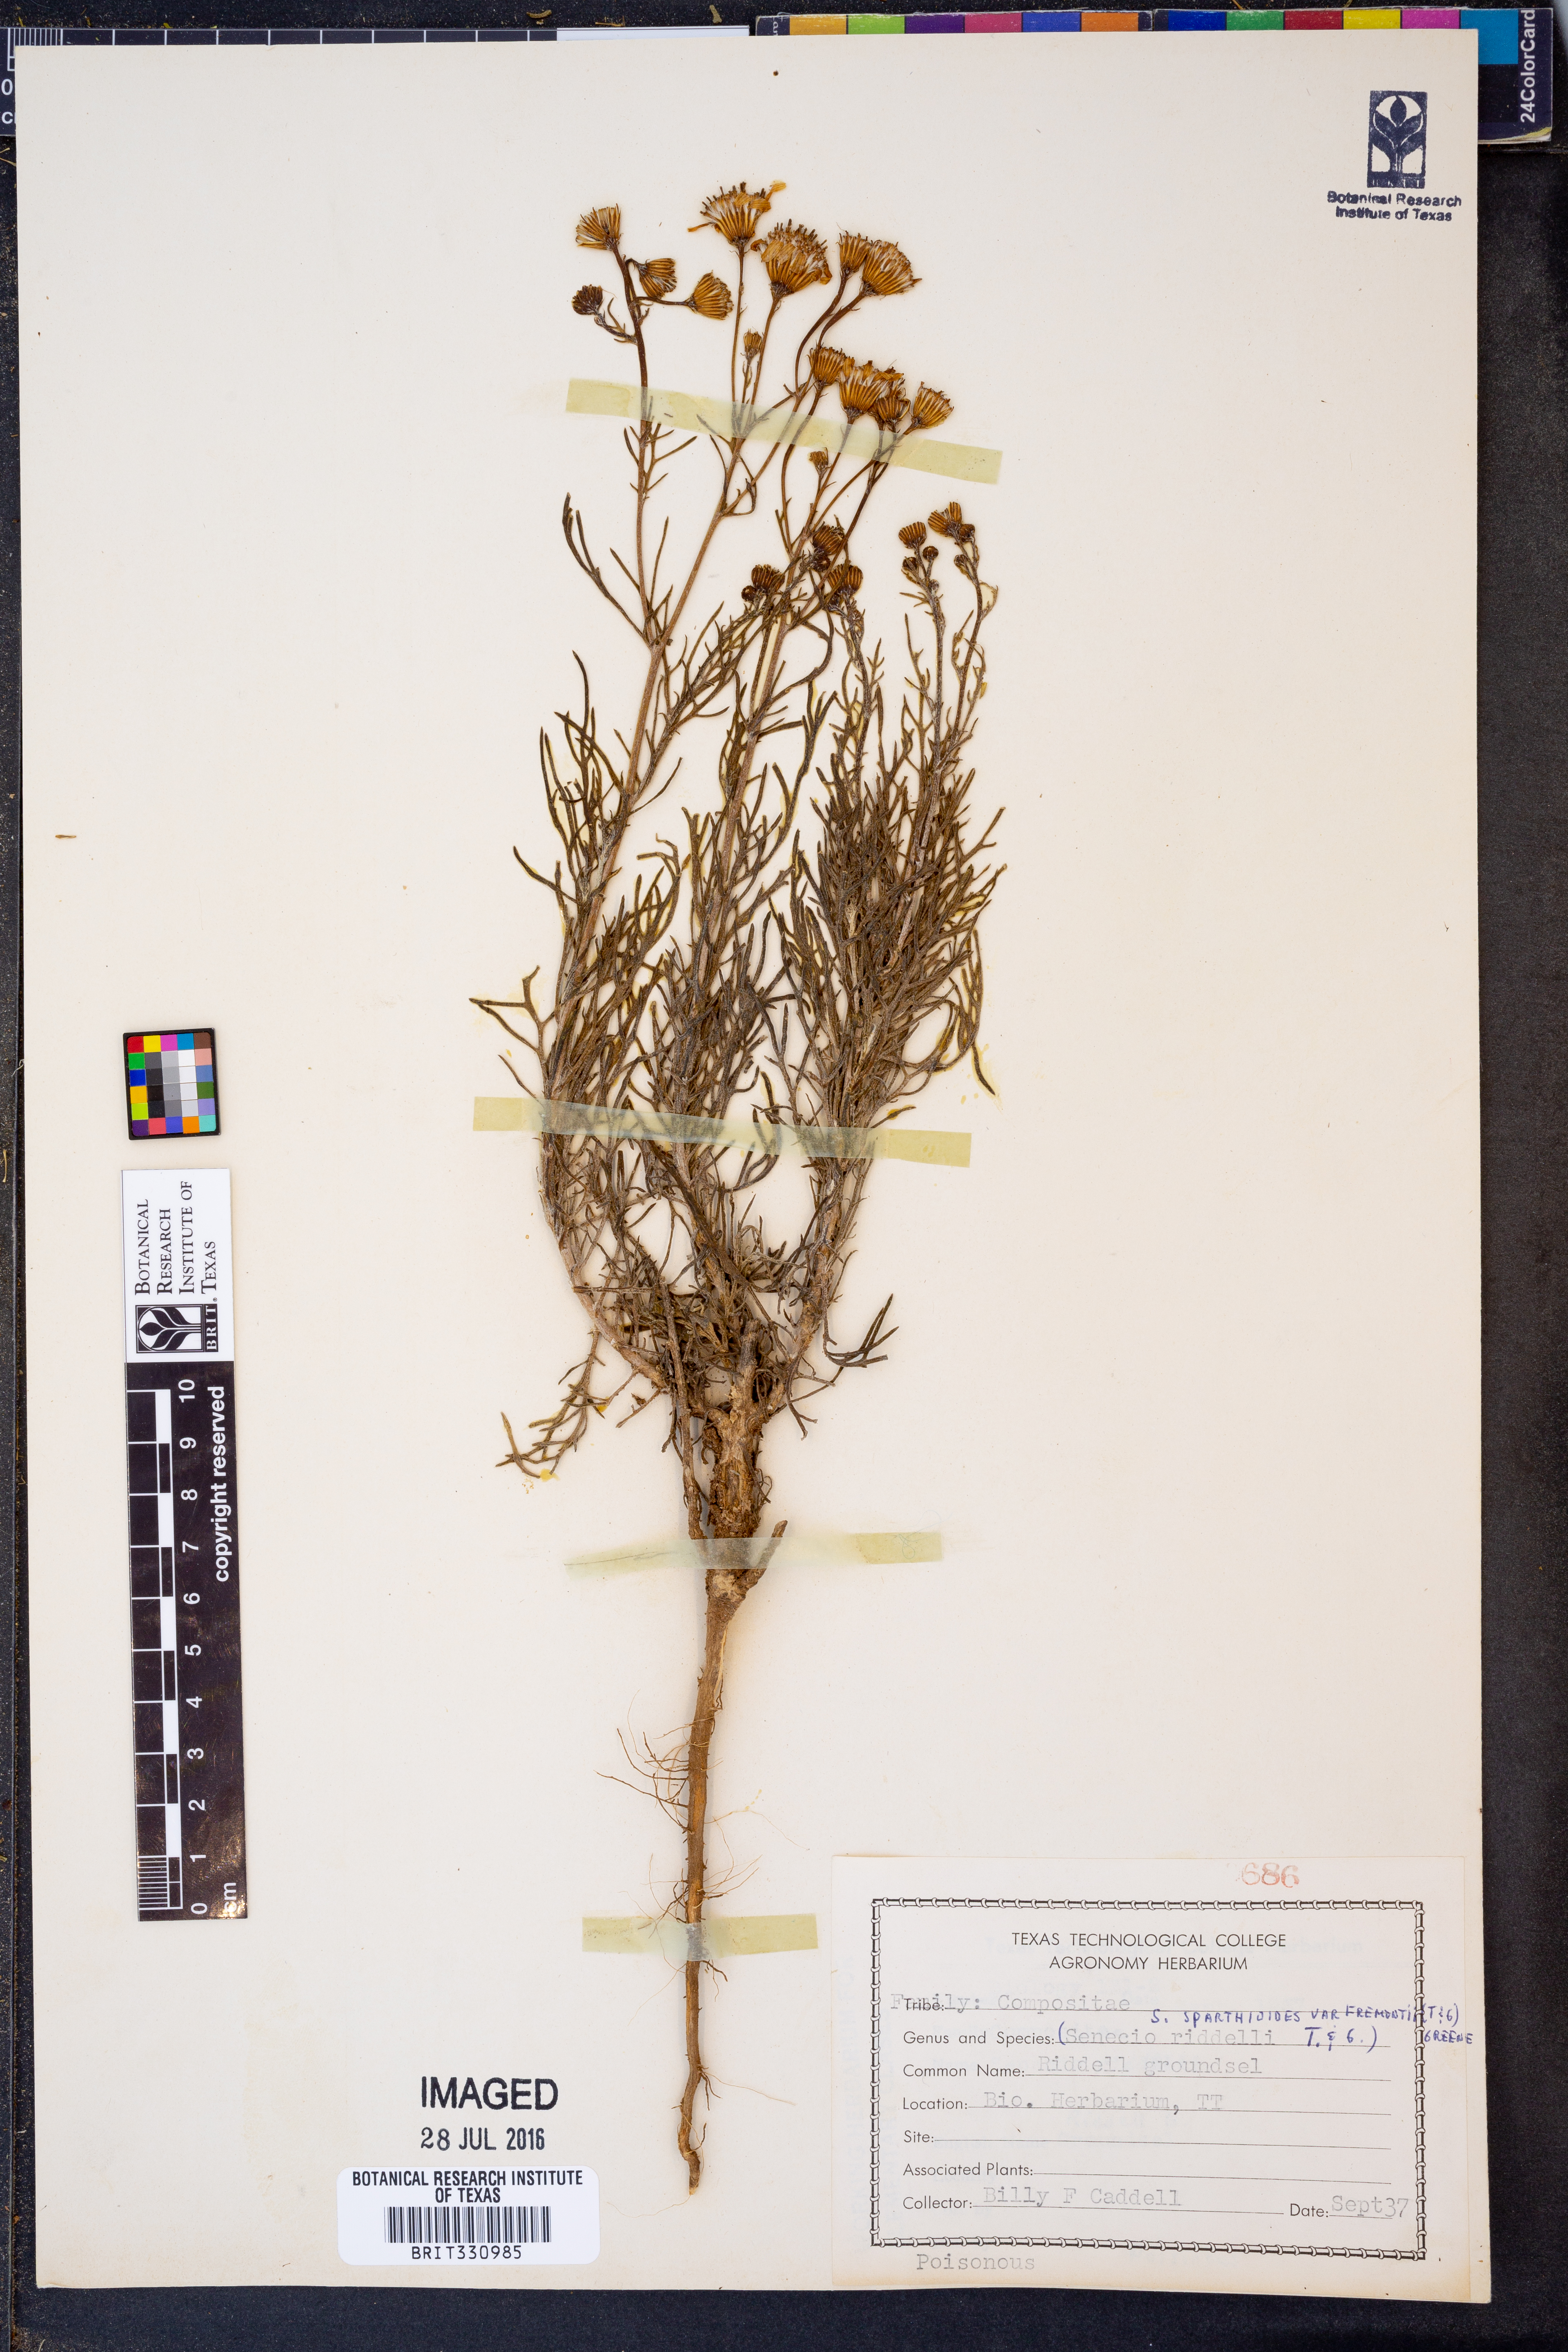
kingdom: Plantae
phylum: Tracheophyta
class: Magnoliopsida
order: Asterales
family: Asteraceae
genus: Senecio
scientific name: Senecio fremontii
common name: Fremont's groundsel
